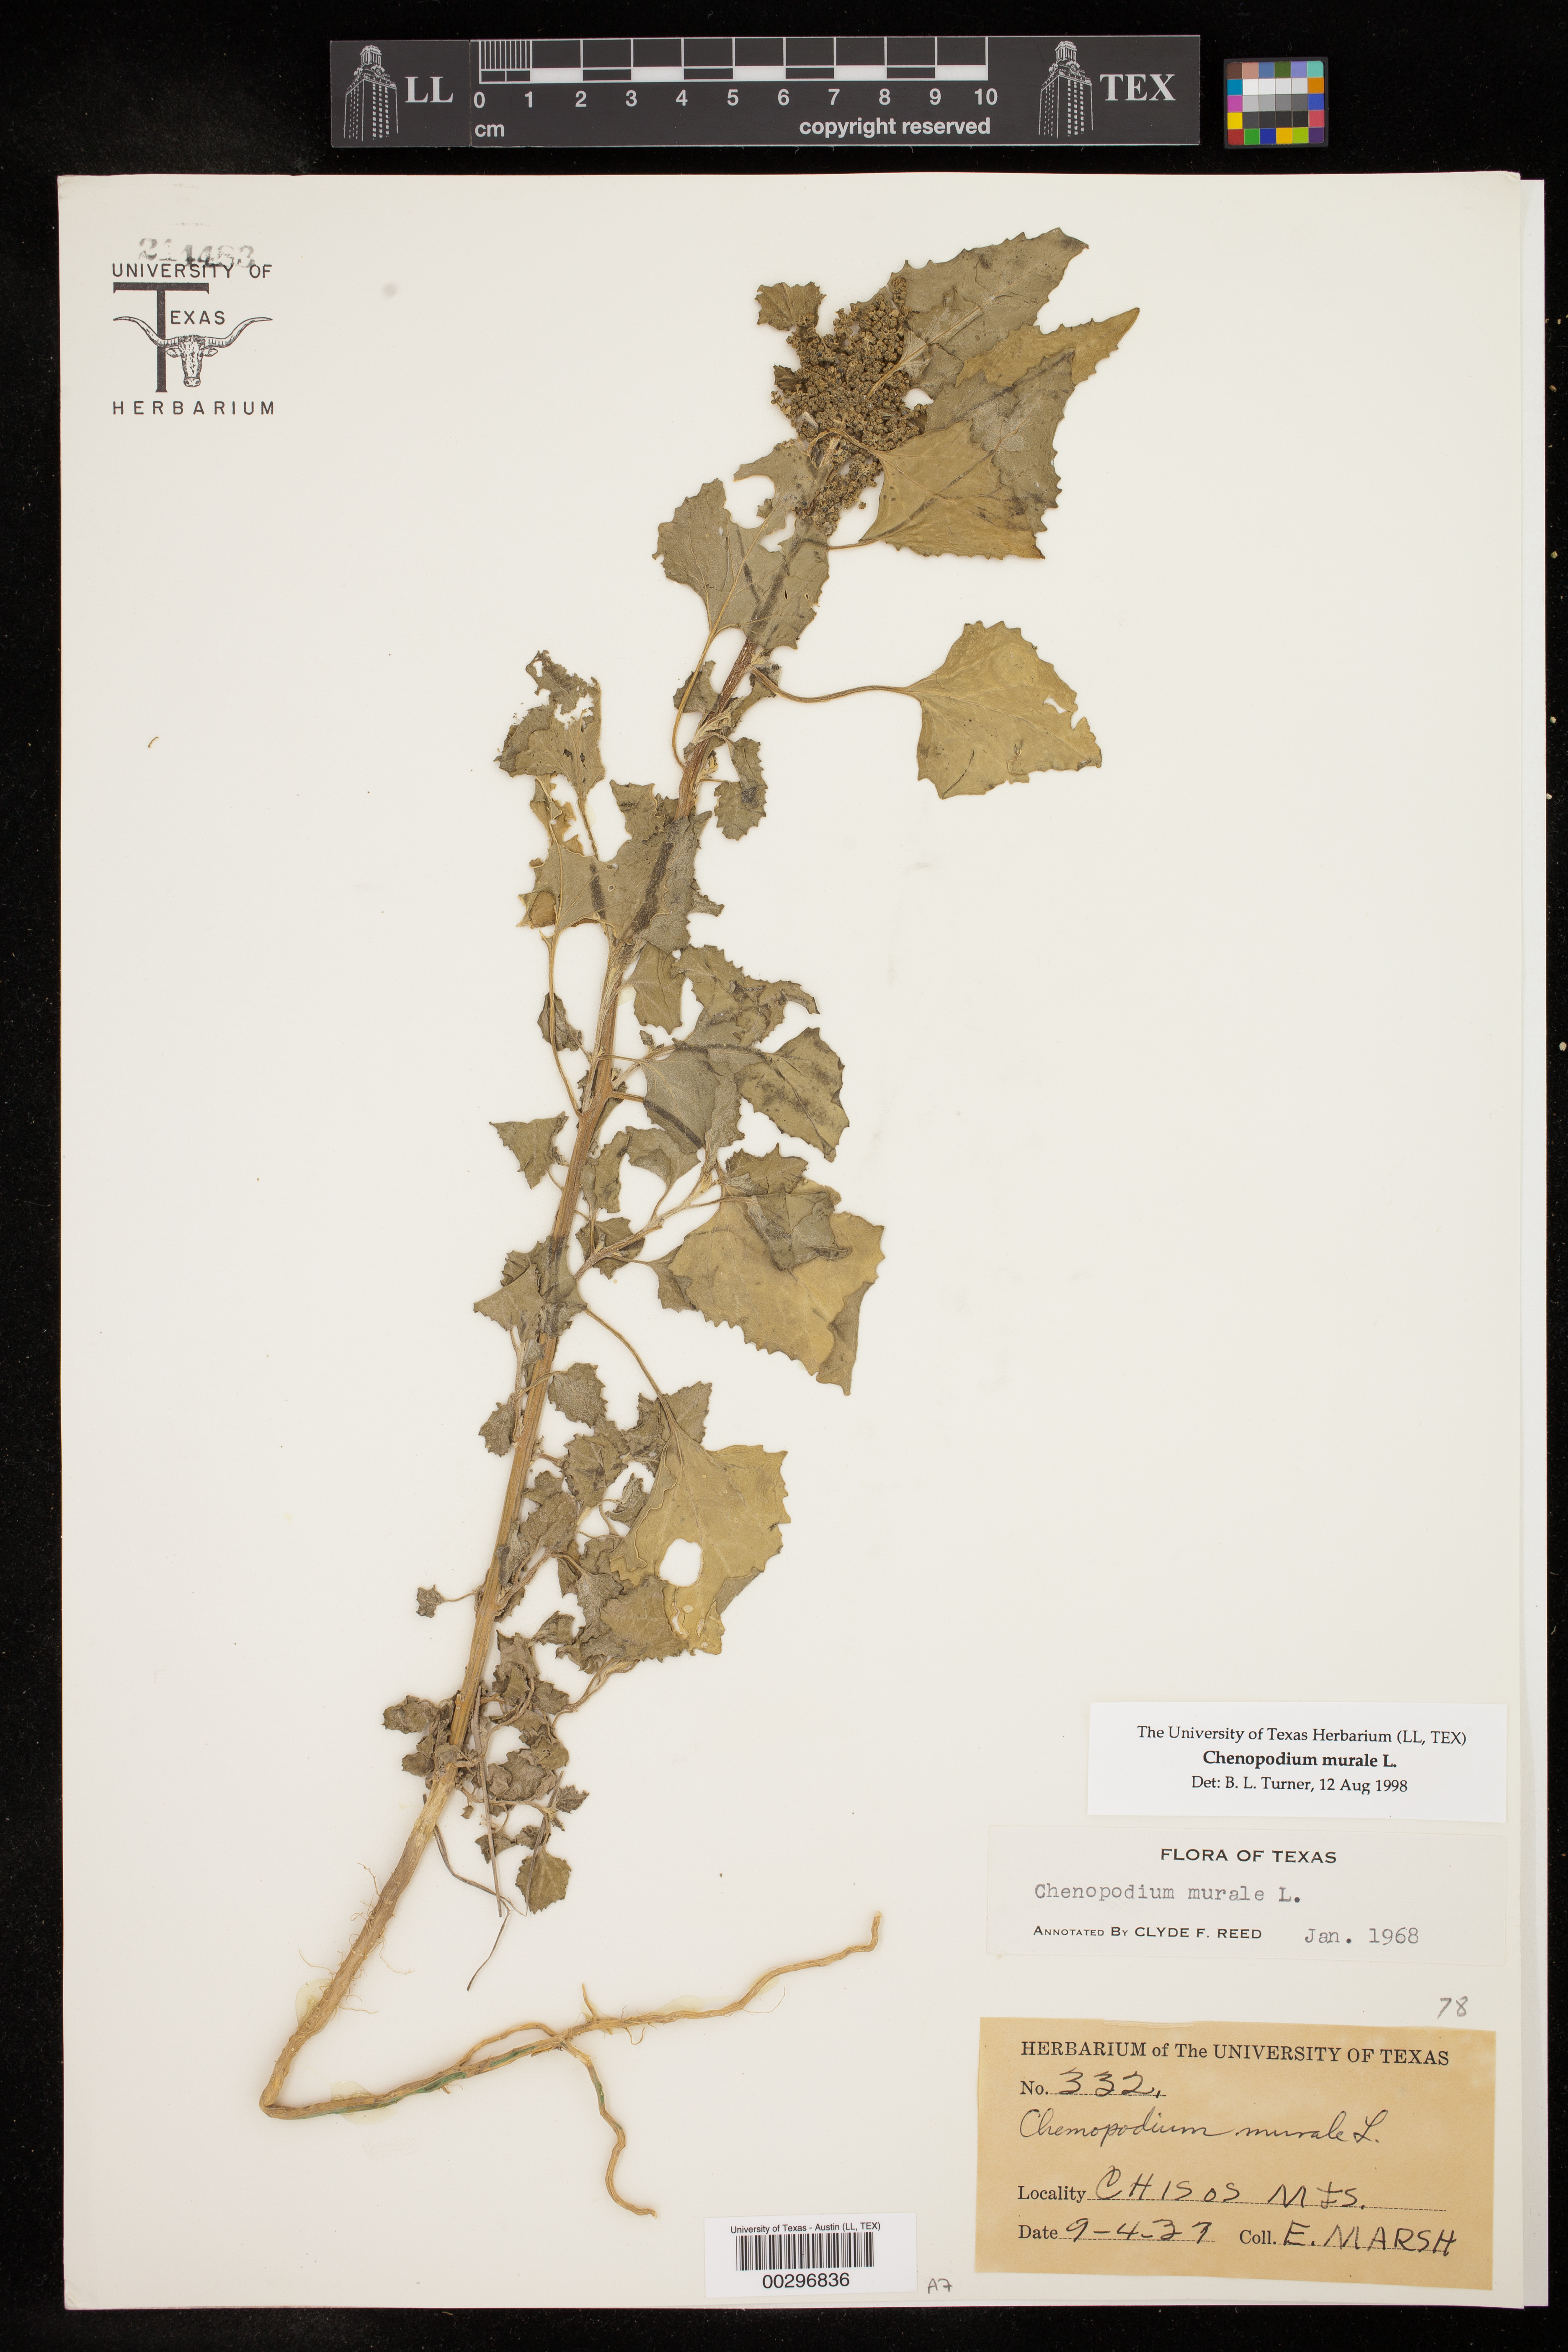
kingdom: Plantae
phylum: Tracheophyta
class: Magnoliopsida
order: Caryophyllales
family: Amaranthaceae
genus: Chenopodiastrum
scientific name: Chenopodiastrum murale
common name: Sowbane
